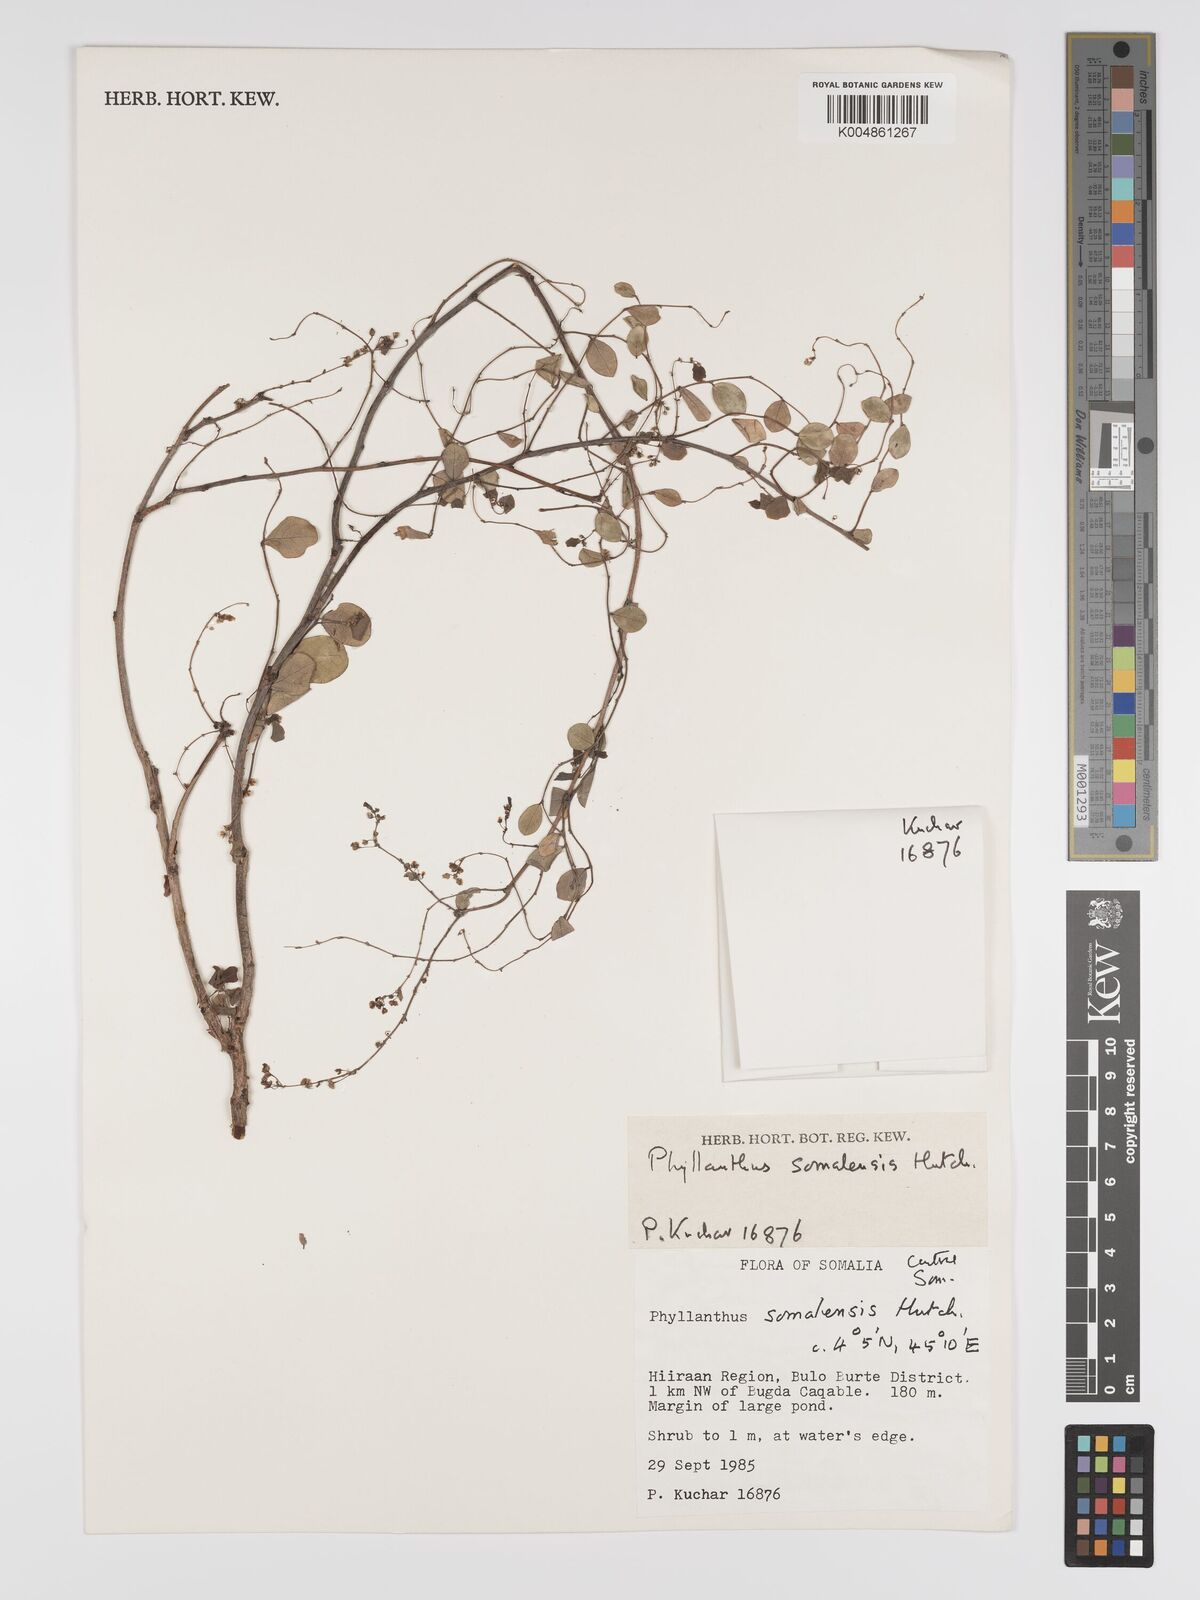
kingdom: Plantae
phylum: Tracheophyta
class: Magnoliopsida
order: Malpighiales
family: Phyllanthaceae
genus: Phyllanthus
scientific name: Phyllanthus somalensis
